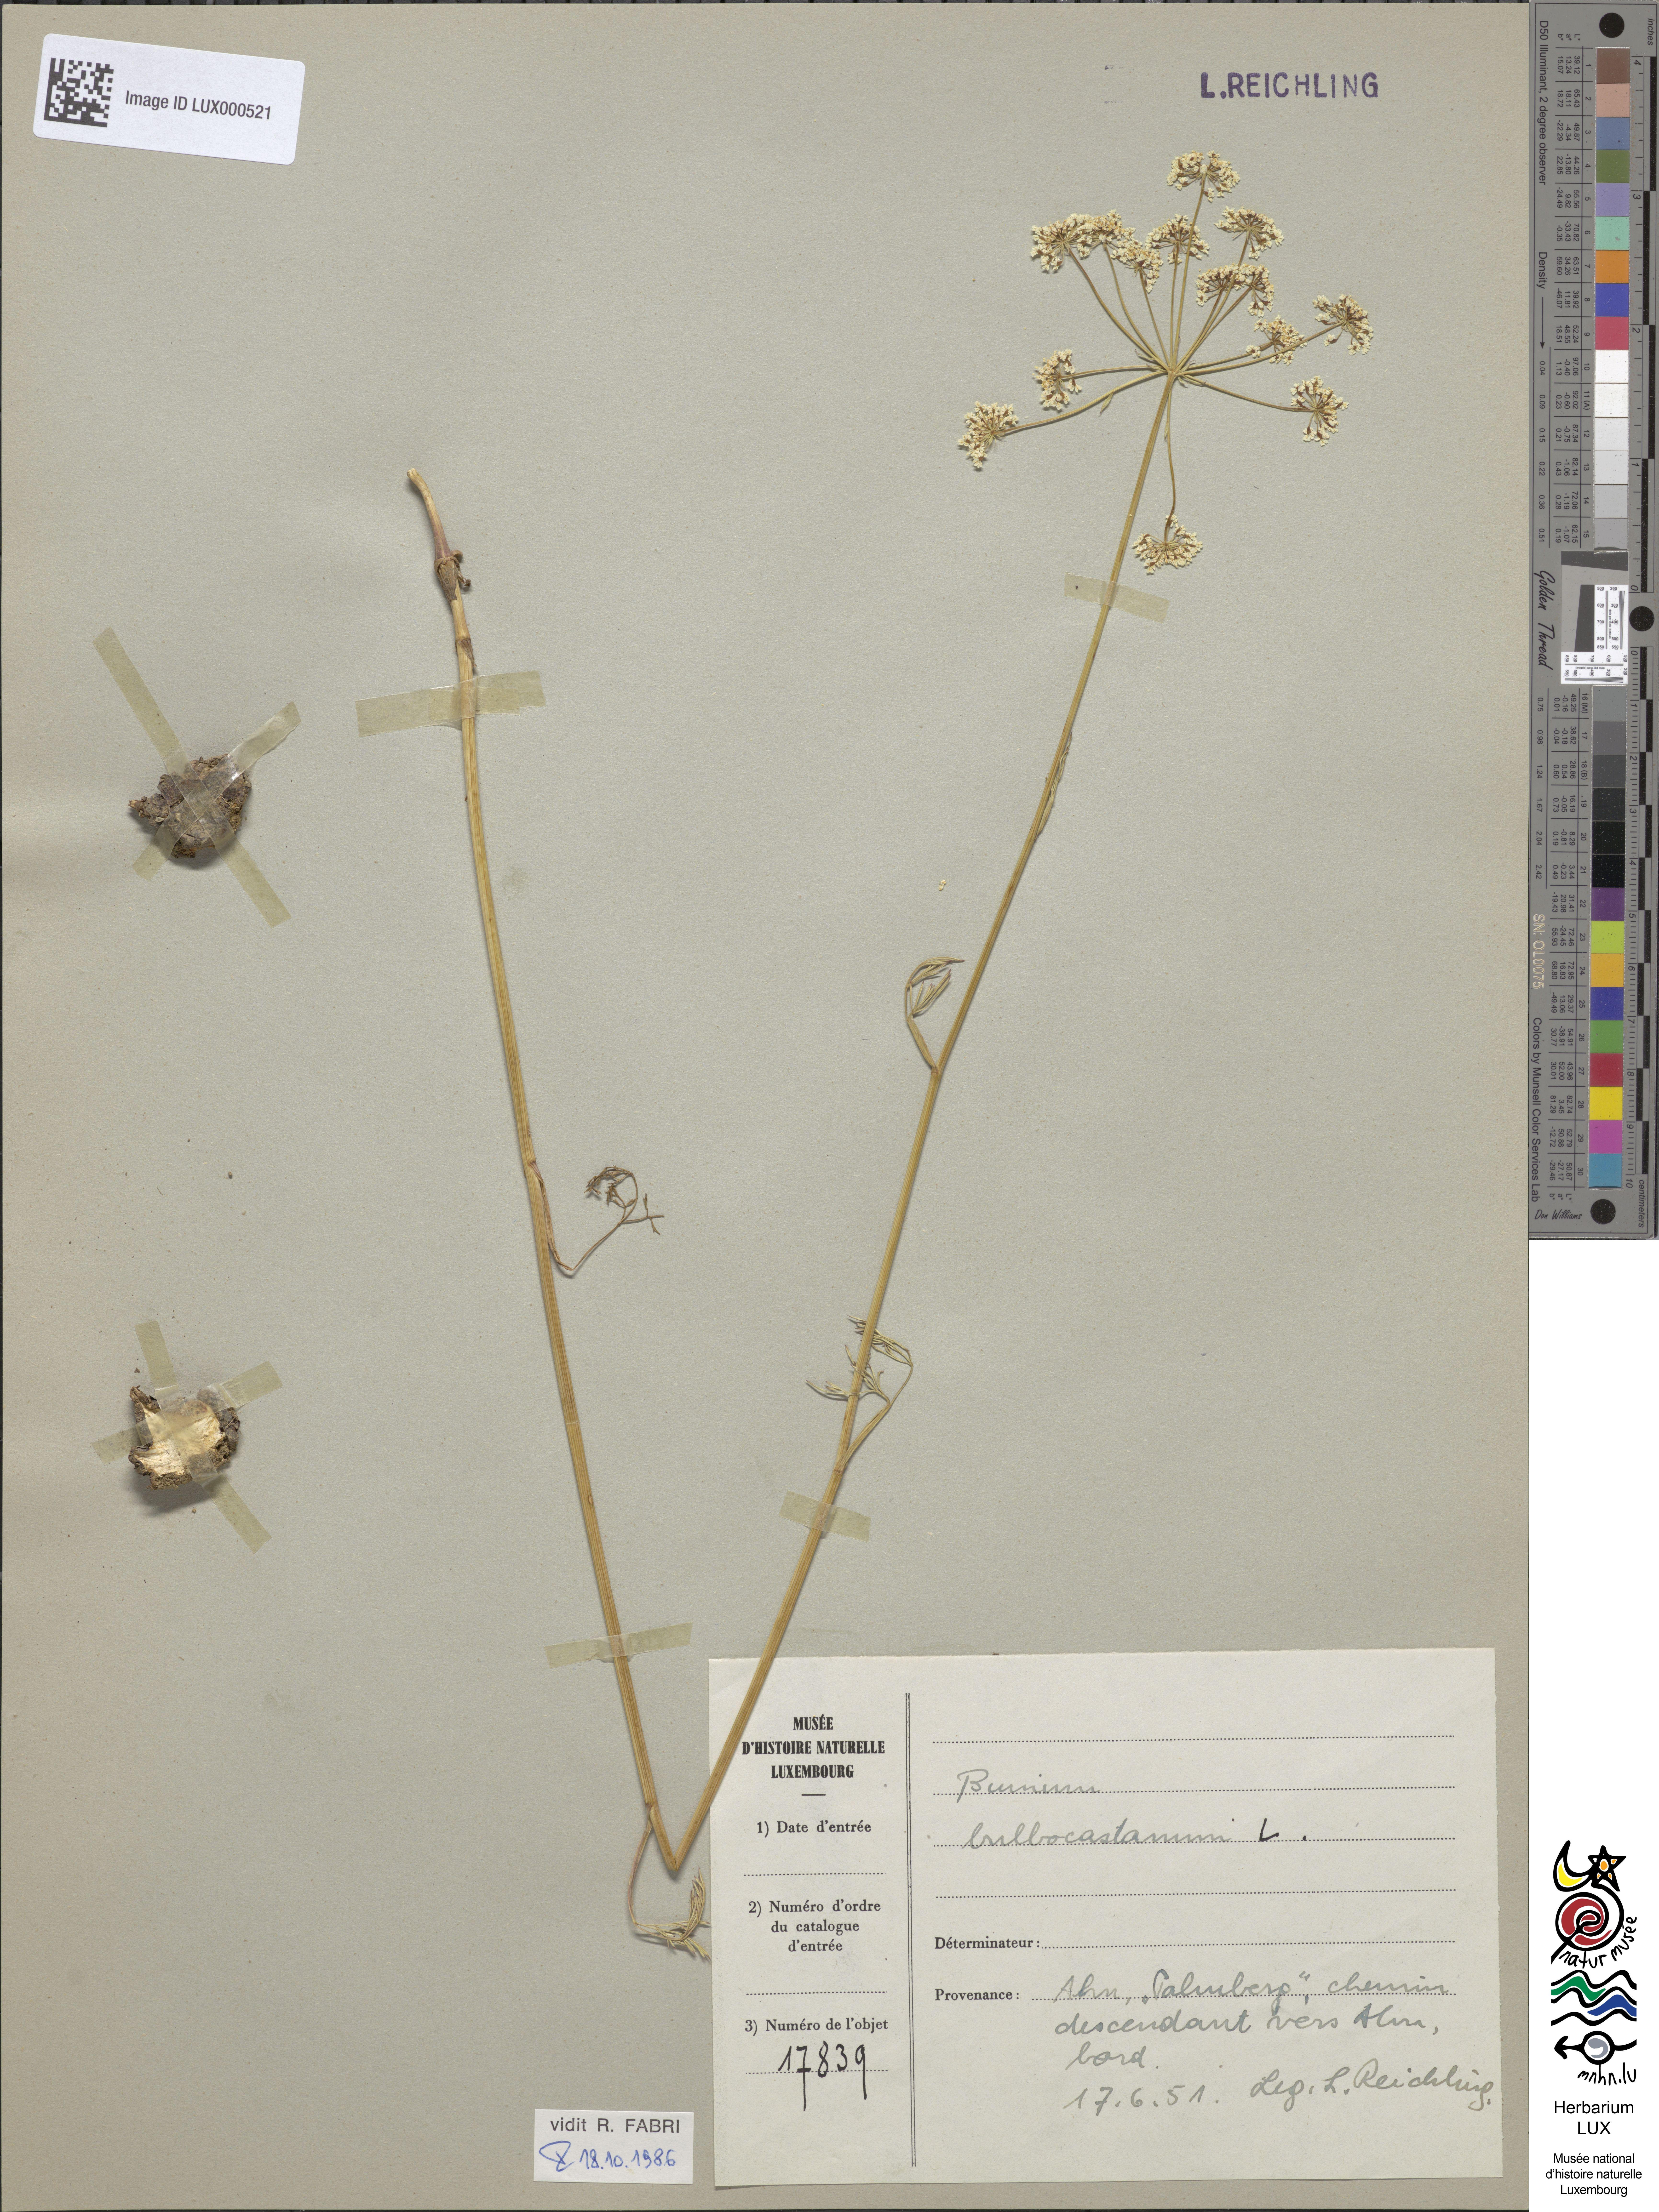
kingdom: Plantae
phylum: Tracheophyta
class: Magnoliopsida
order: Apiales
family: Apiaceae
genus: Bunium
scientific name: Bunium bulbocastanum
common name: Great pignut
